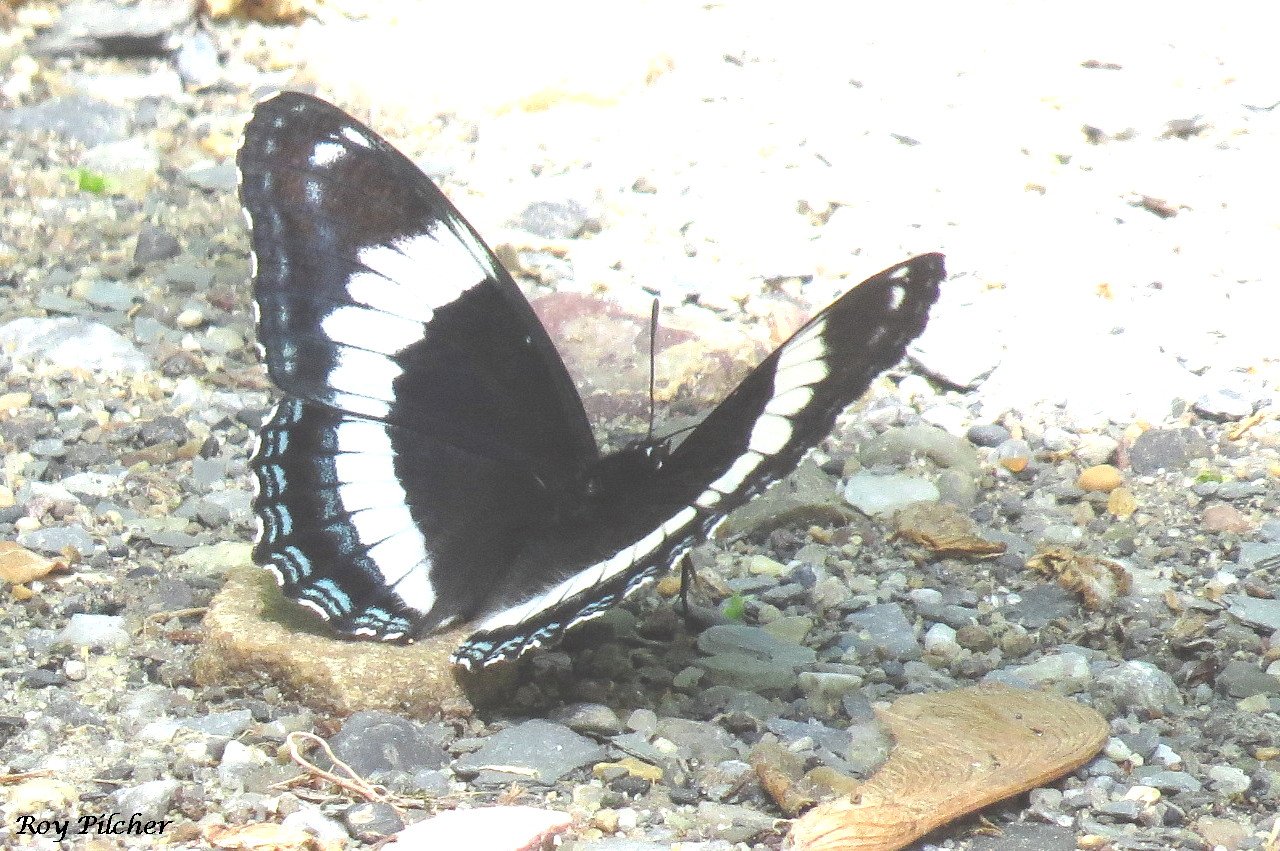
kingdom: Animalia
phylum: Arthropoda
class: Insecta
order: Lepidoptera
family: Nymphalidae
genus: Limenitis
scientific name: Limenitis arthemis
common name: Red-spotted Admiral
